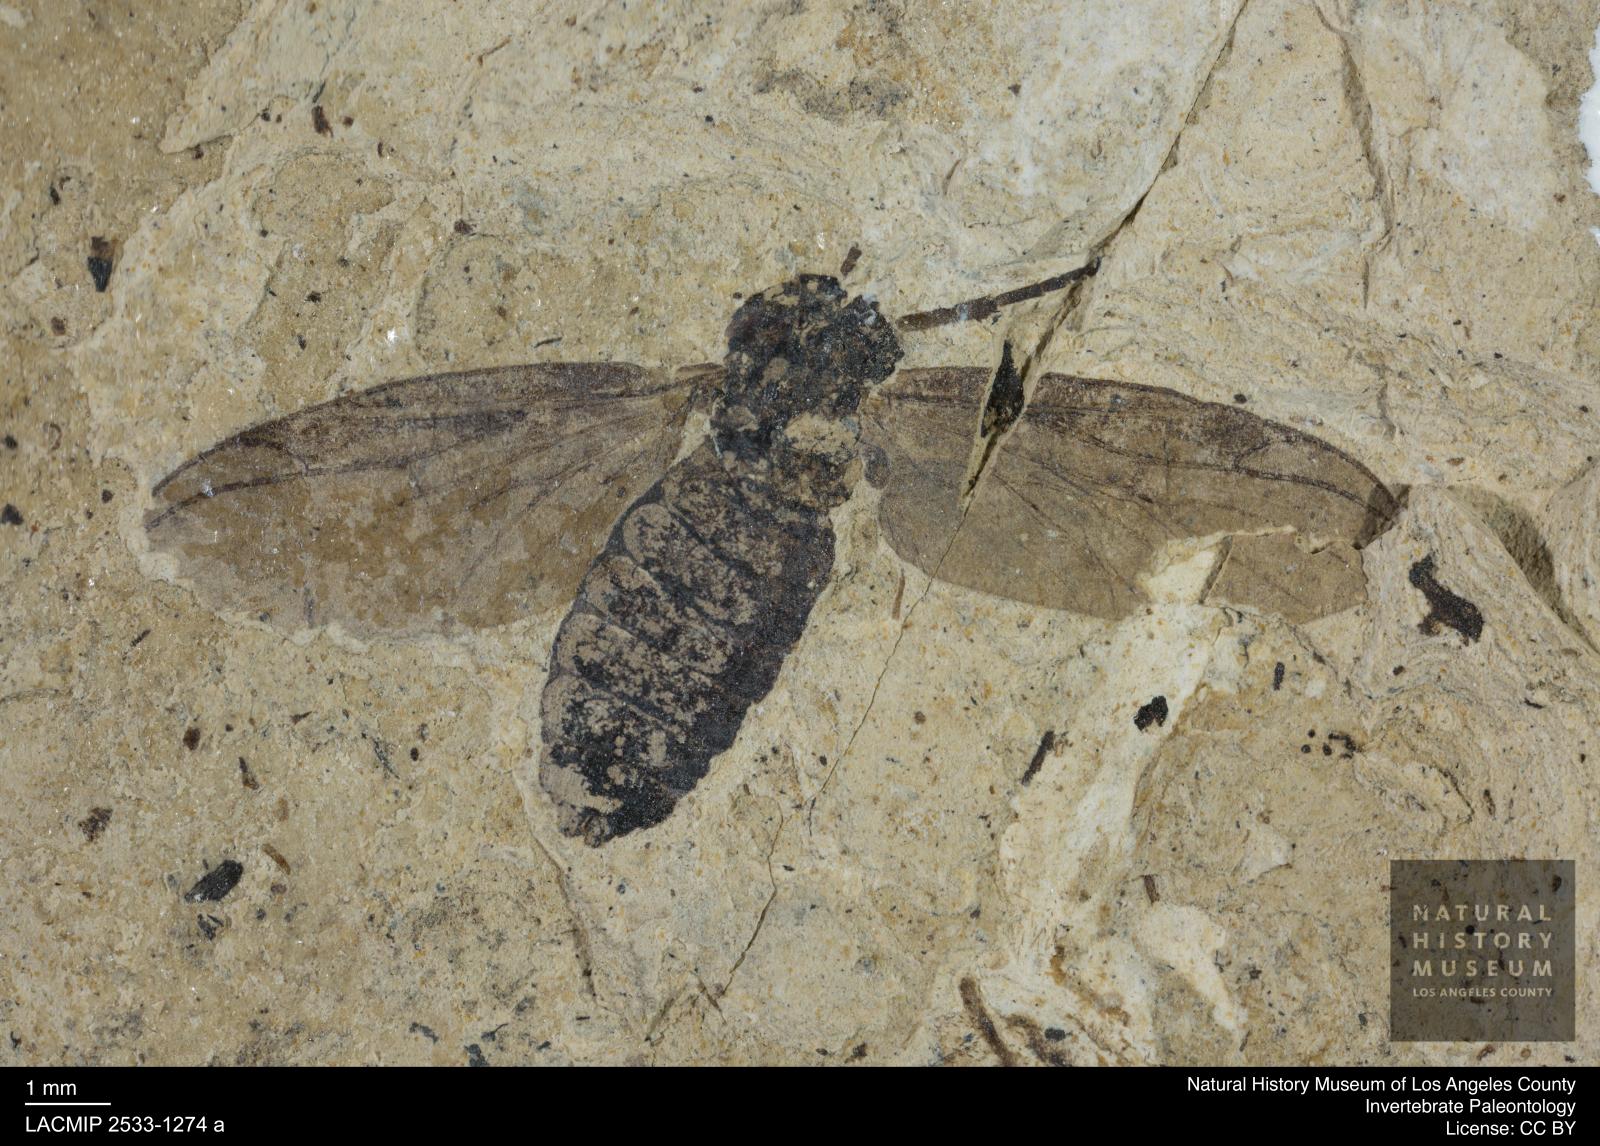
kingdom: Animalia
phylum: Arthropoda
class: Insecta
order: Diptera
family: Bibionidae
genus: Plecia
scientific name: Plecia grossa
